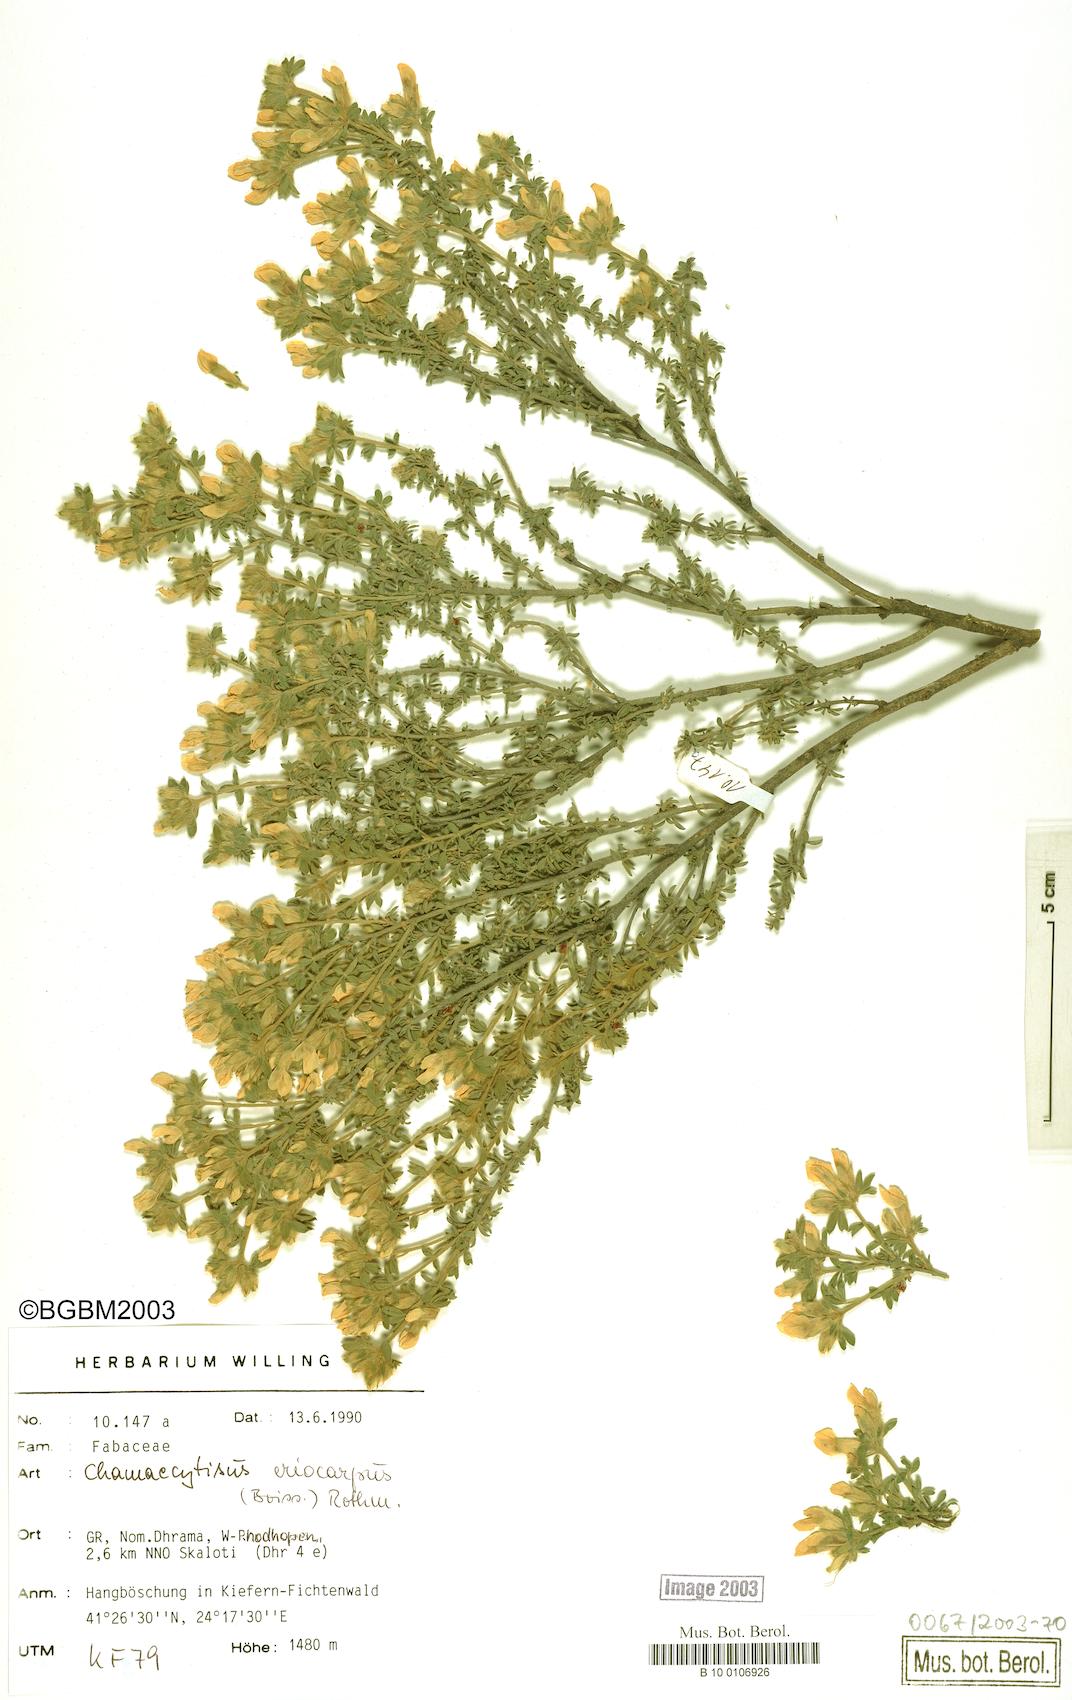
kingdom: Plantae
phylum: Tracheophyta
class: Magnoliopsida
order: Fabales
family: Fabaceae
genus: Chamaecytisus
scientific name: Chamaecytisus eriocarpus
